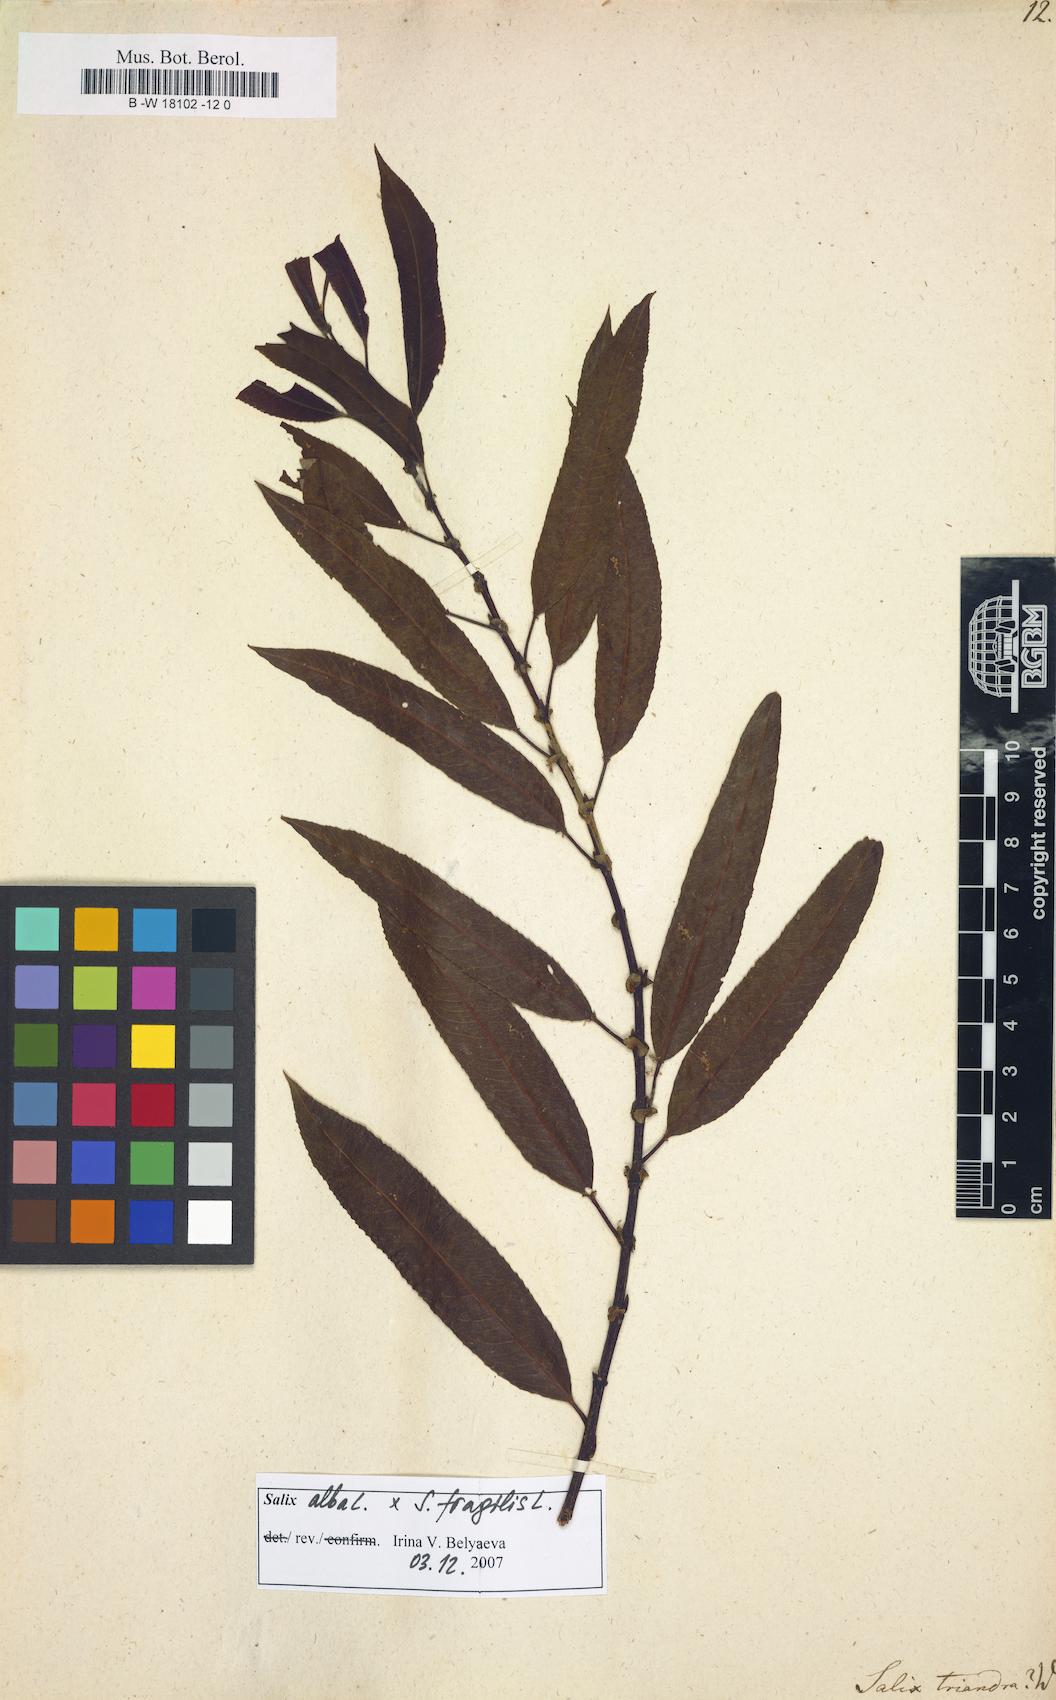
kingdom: Plantae
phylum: Tracheophyta
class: Magnoliopsida
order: Malpighiales
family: Salicaceae
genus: Salix
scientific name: Salix triandra
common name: Almond willow
